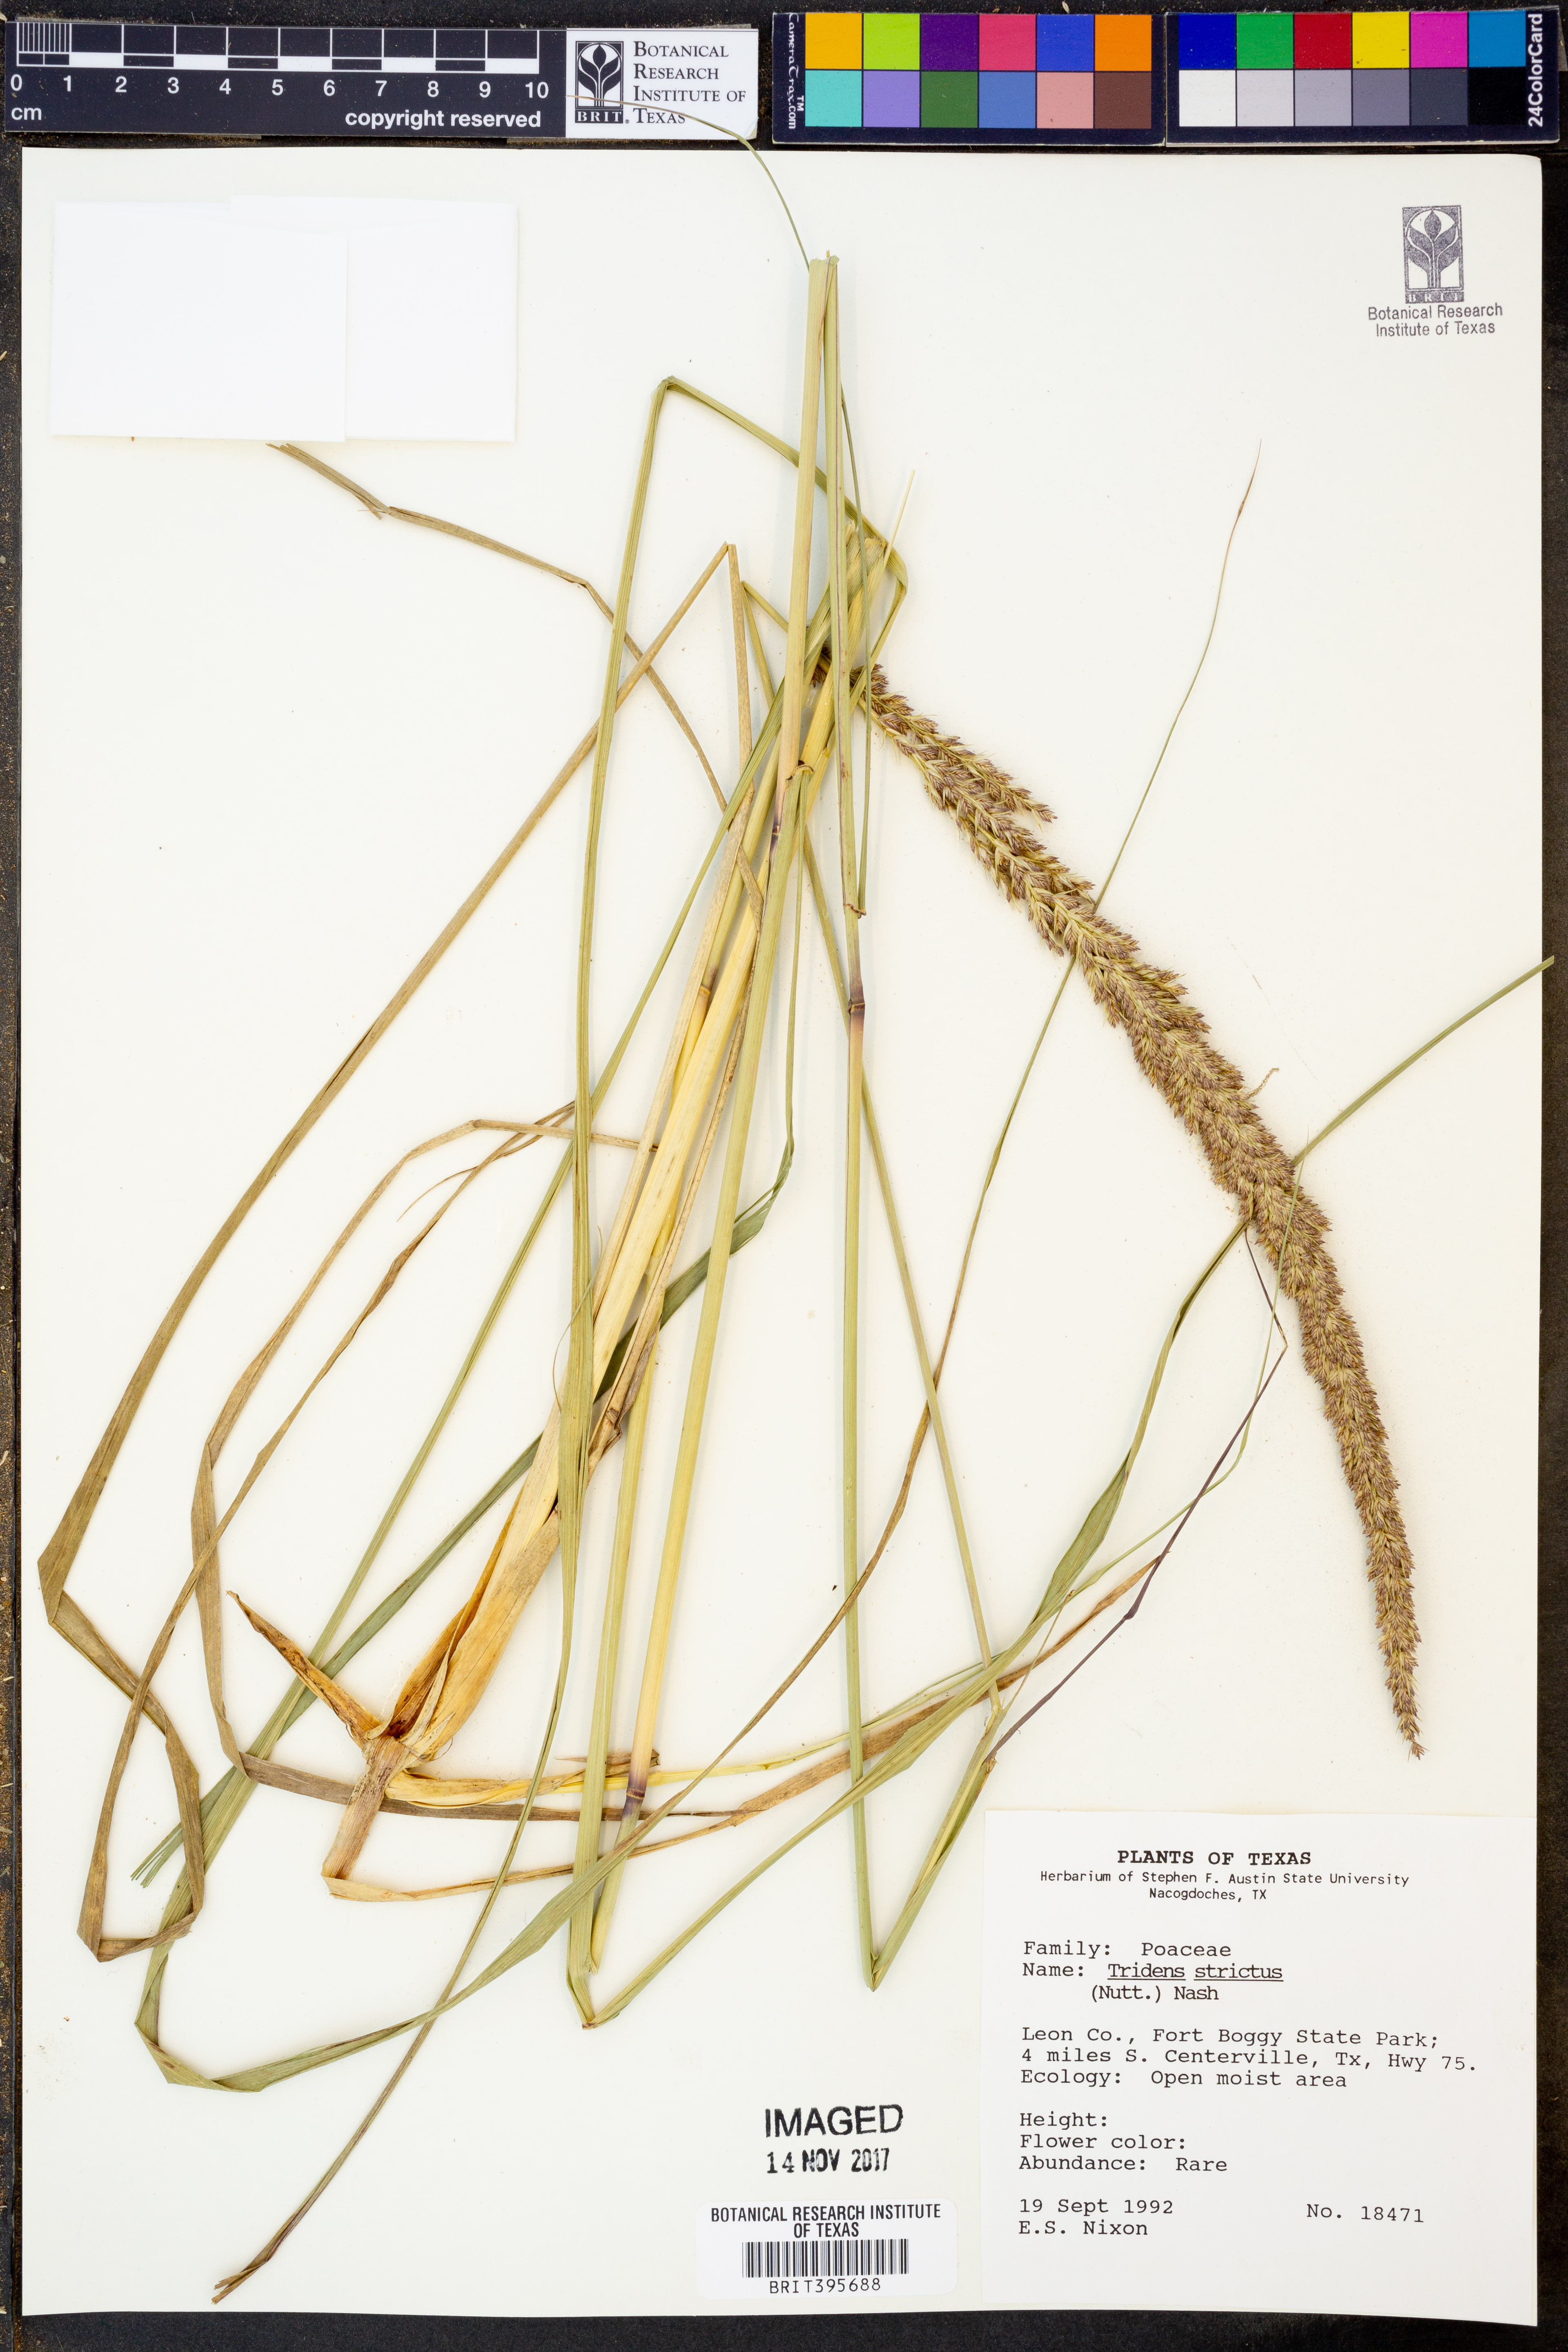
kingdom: Plantae
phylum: Tracheophyta
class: Liliopsida
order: Poales
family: Poaceae
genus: Tridens
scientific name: Tridens strictus
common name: Long-spike tridens
